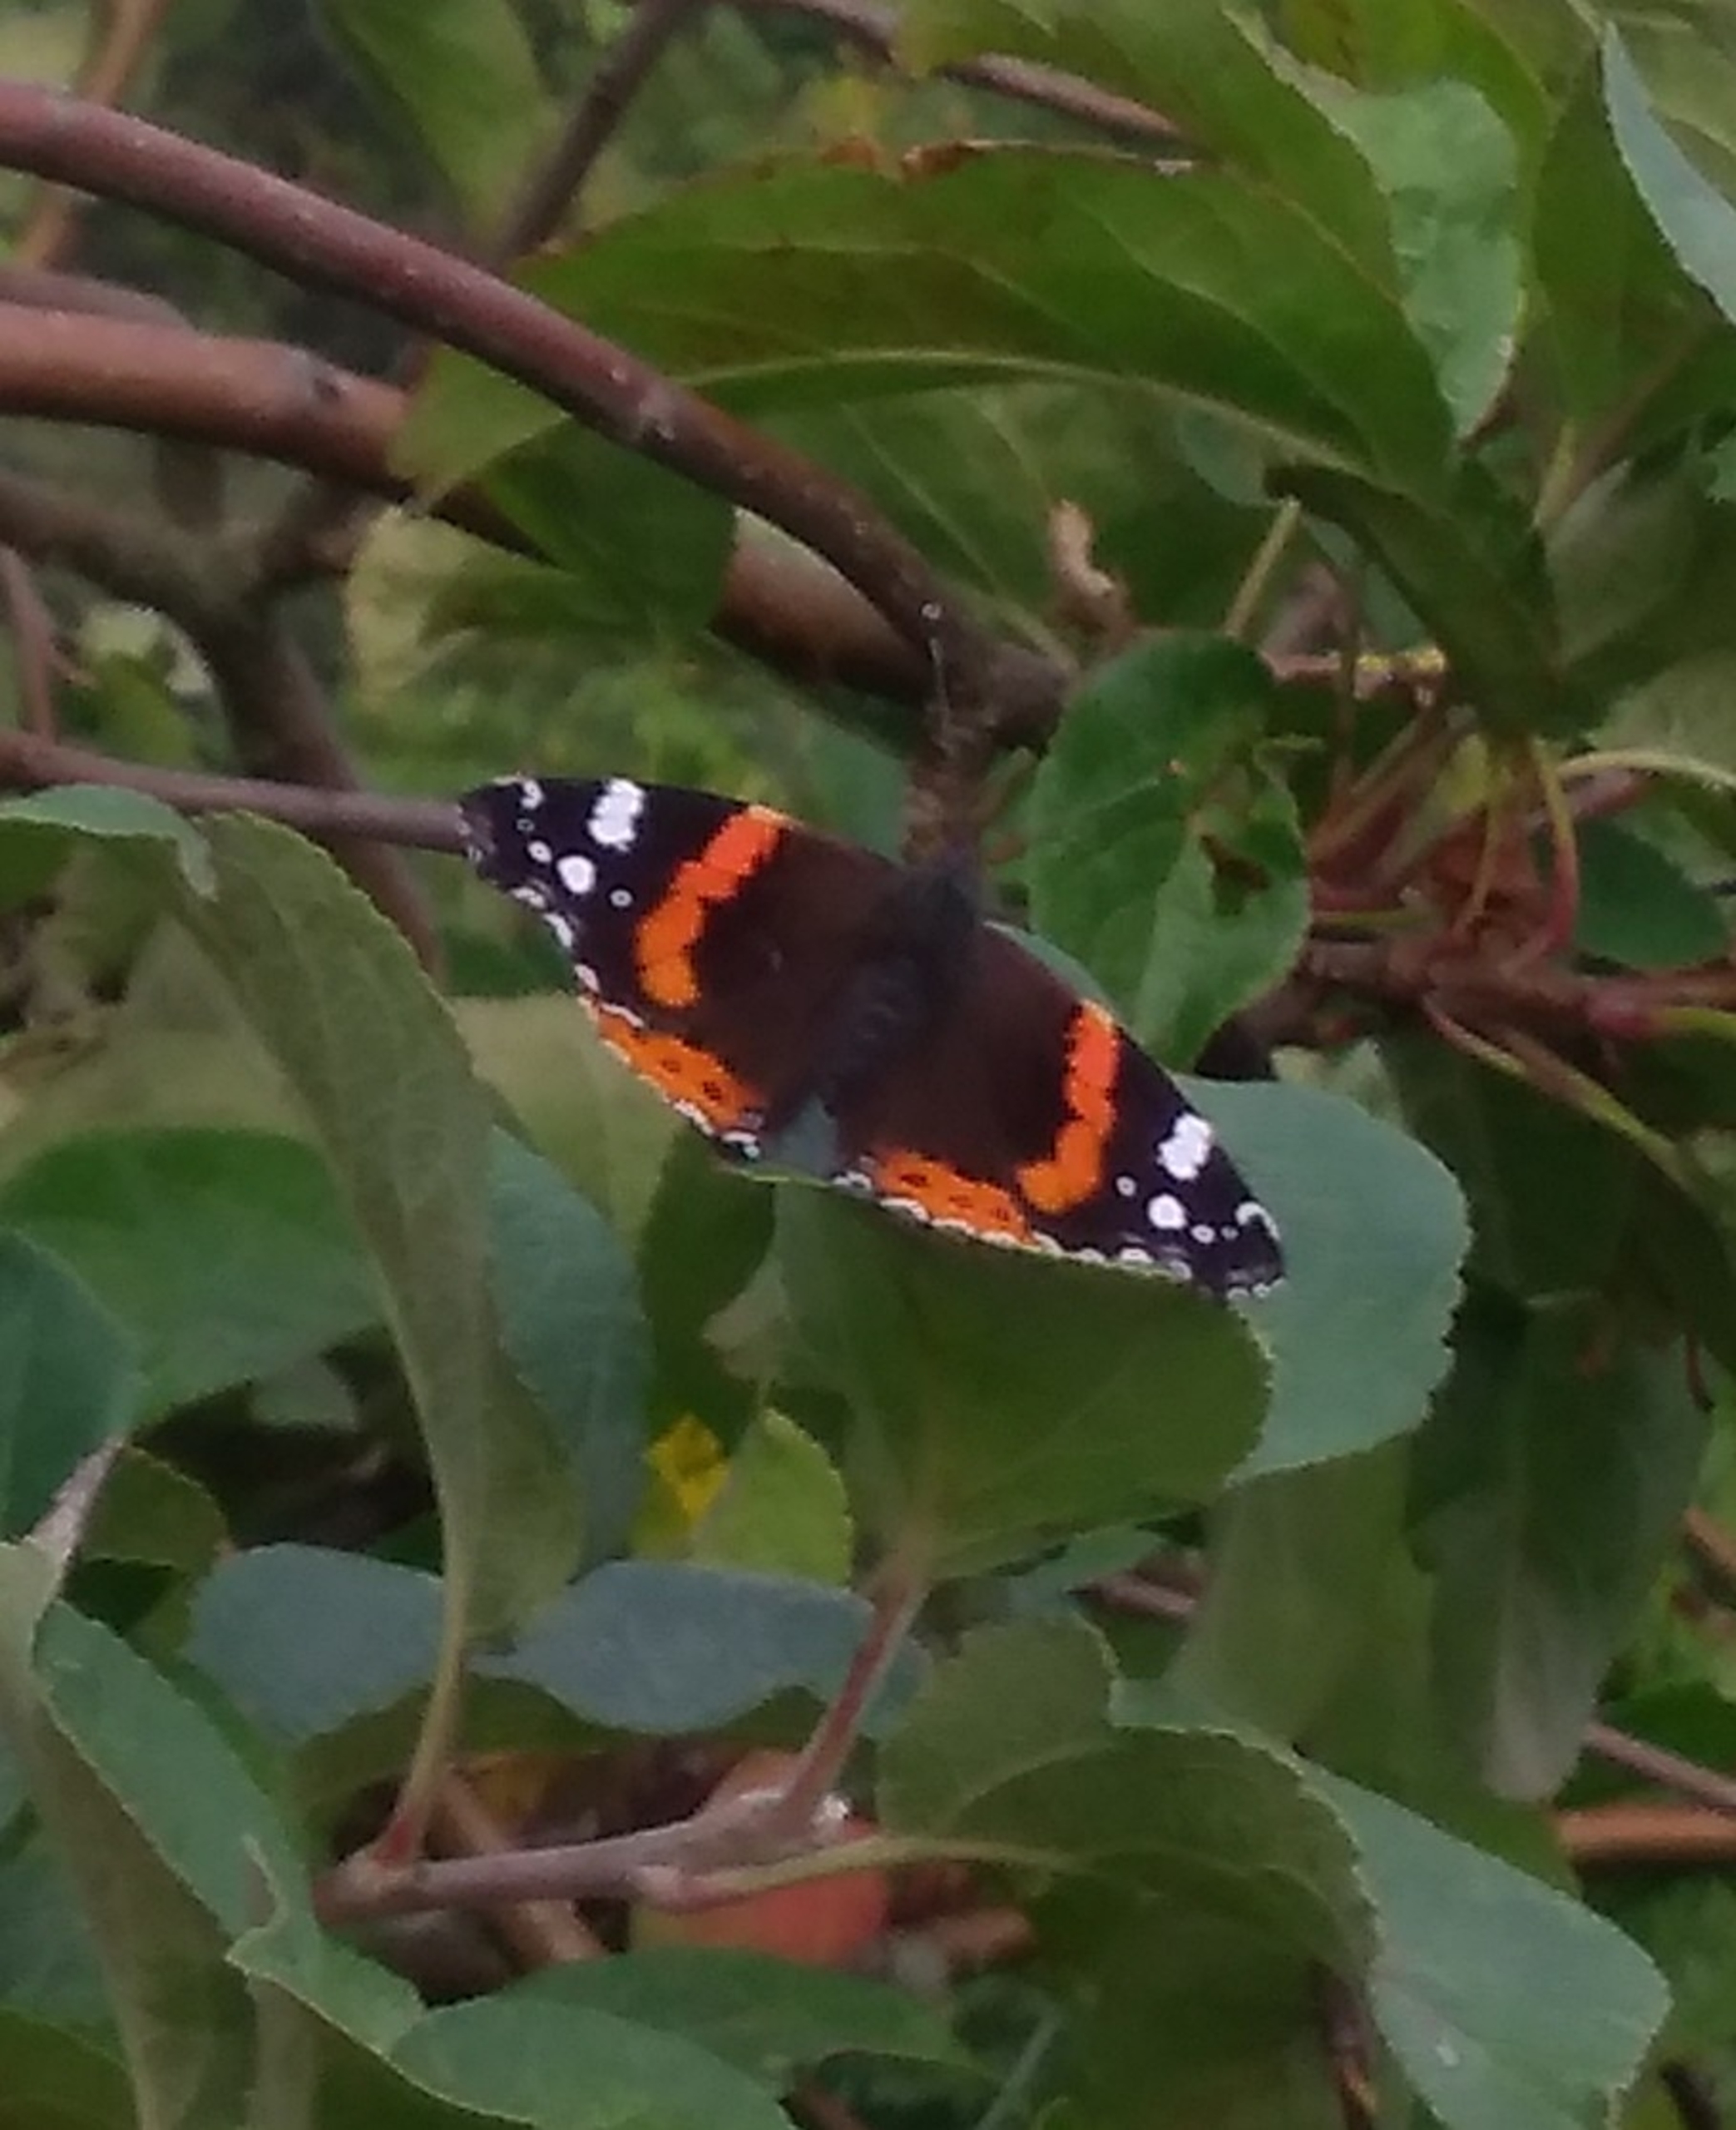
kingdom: Animalia
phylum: Arthropoda
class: Insecta
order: Lepidoptera
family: Nymphalidae
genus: Vanessa
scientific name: Vanessa atalanta
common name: Admiral
